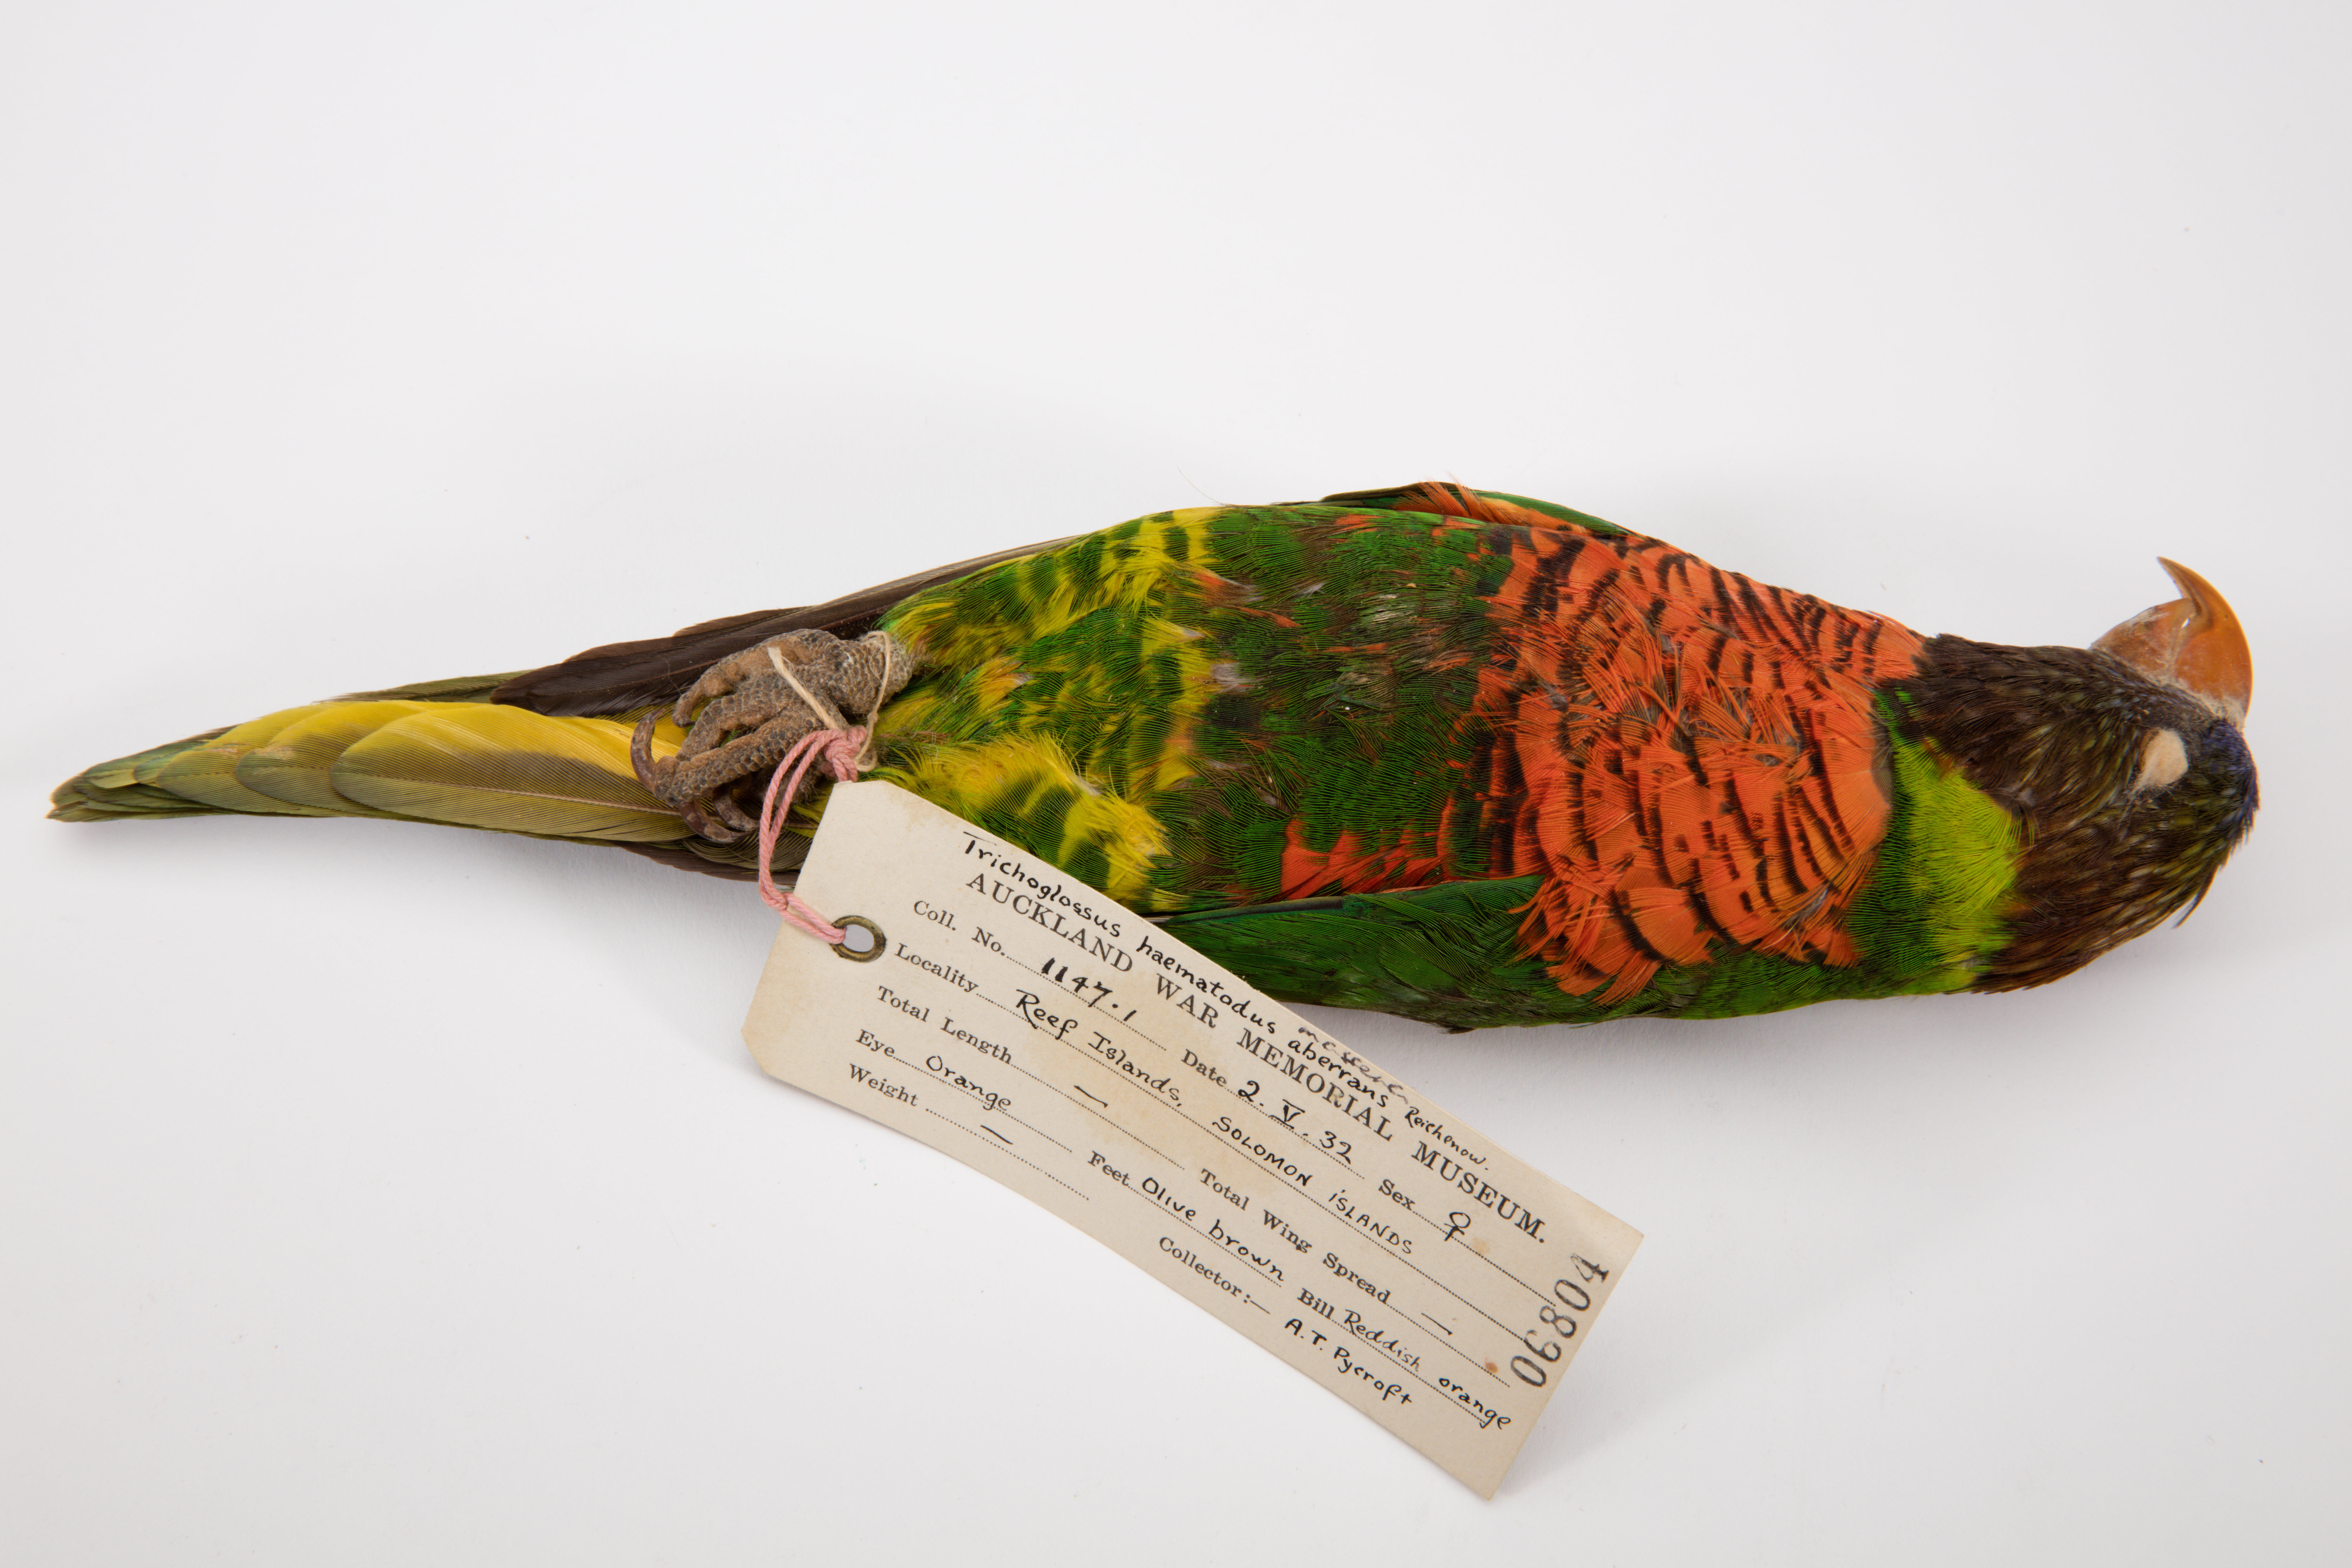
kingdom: Animalia
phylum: Chordata
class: Aves
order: Psittaciformes
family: Psittacidae
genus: Trichoglossus
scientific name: Trichoglossus haematodus
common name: Coconut lorikeet
